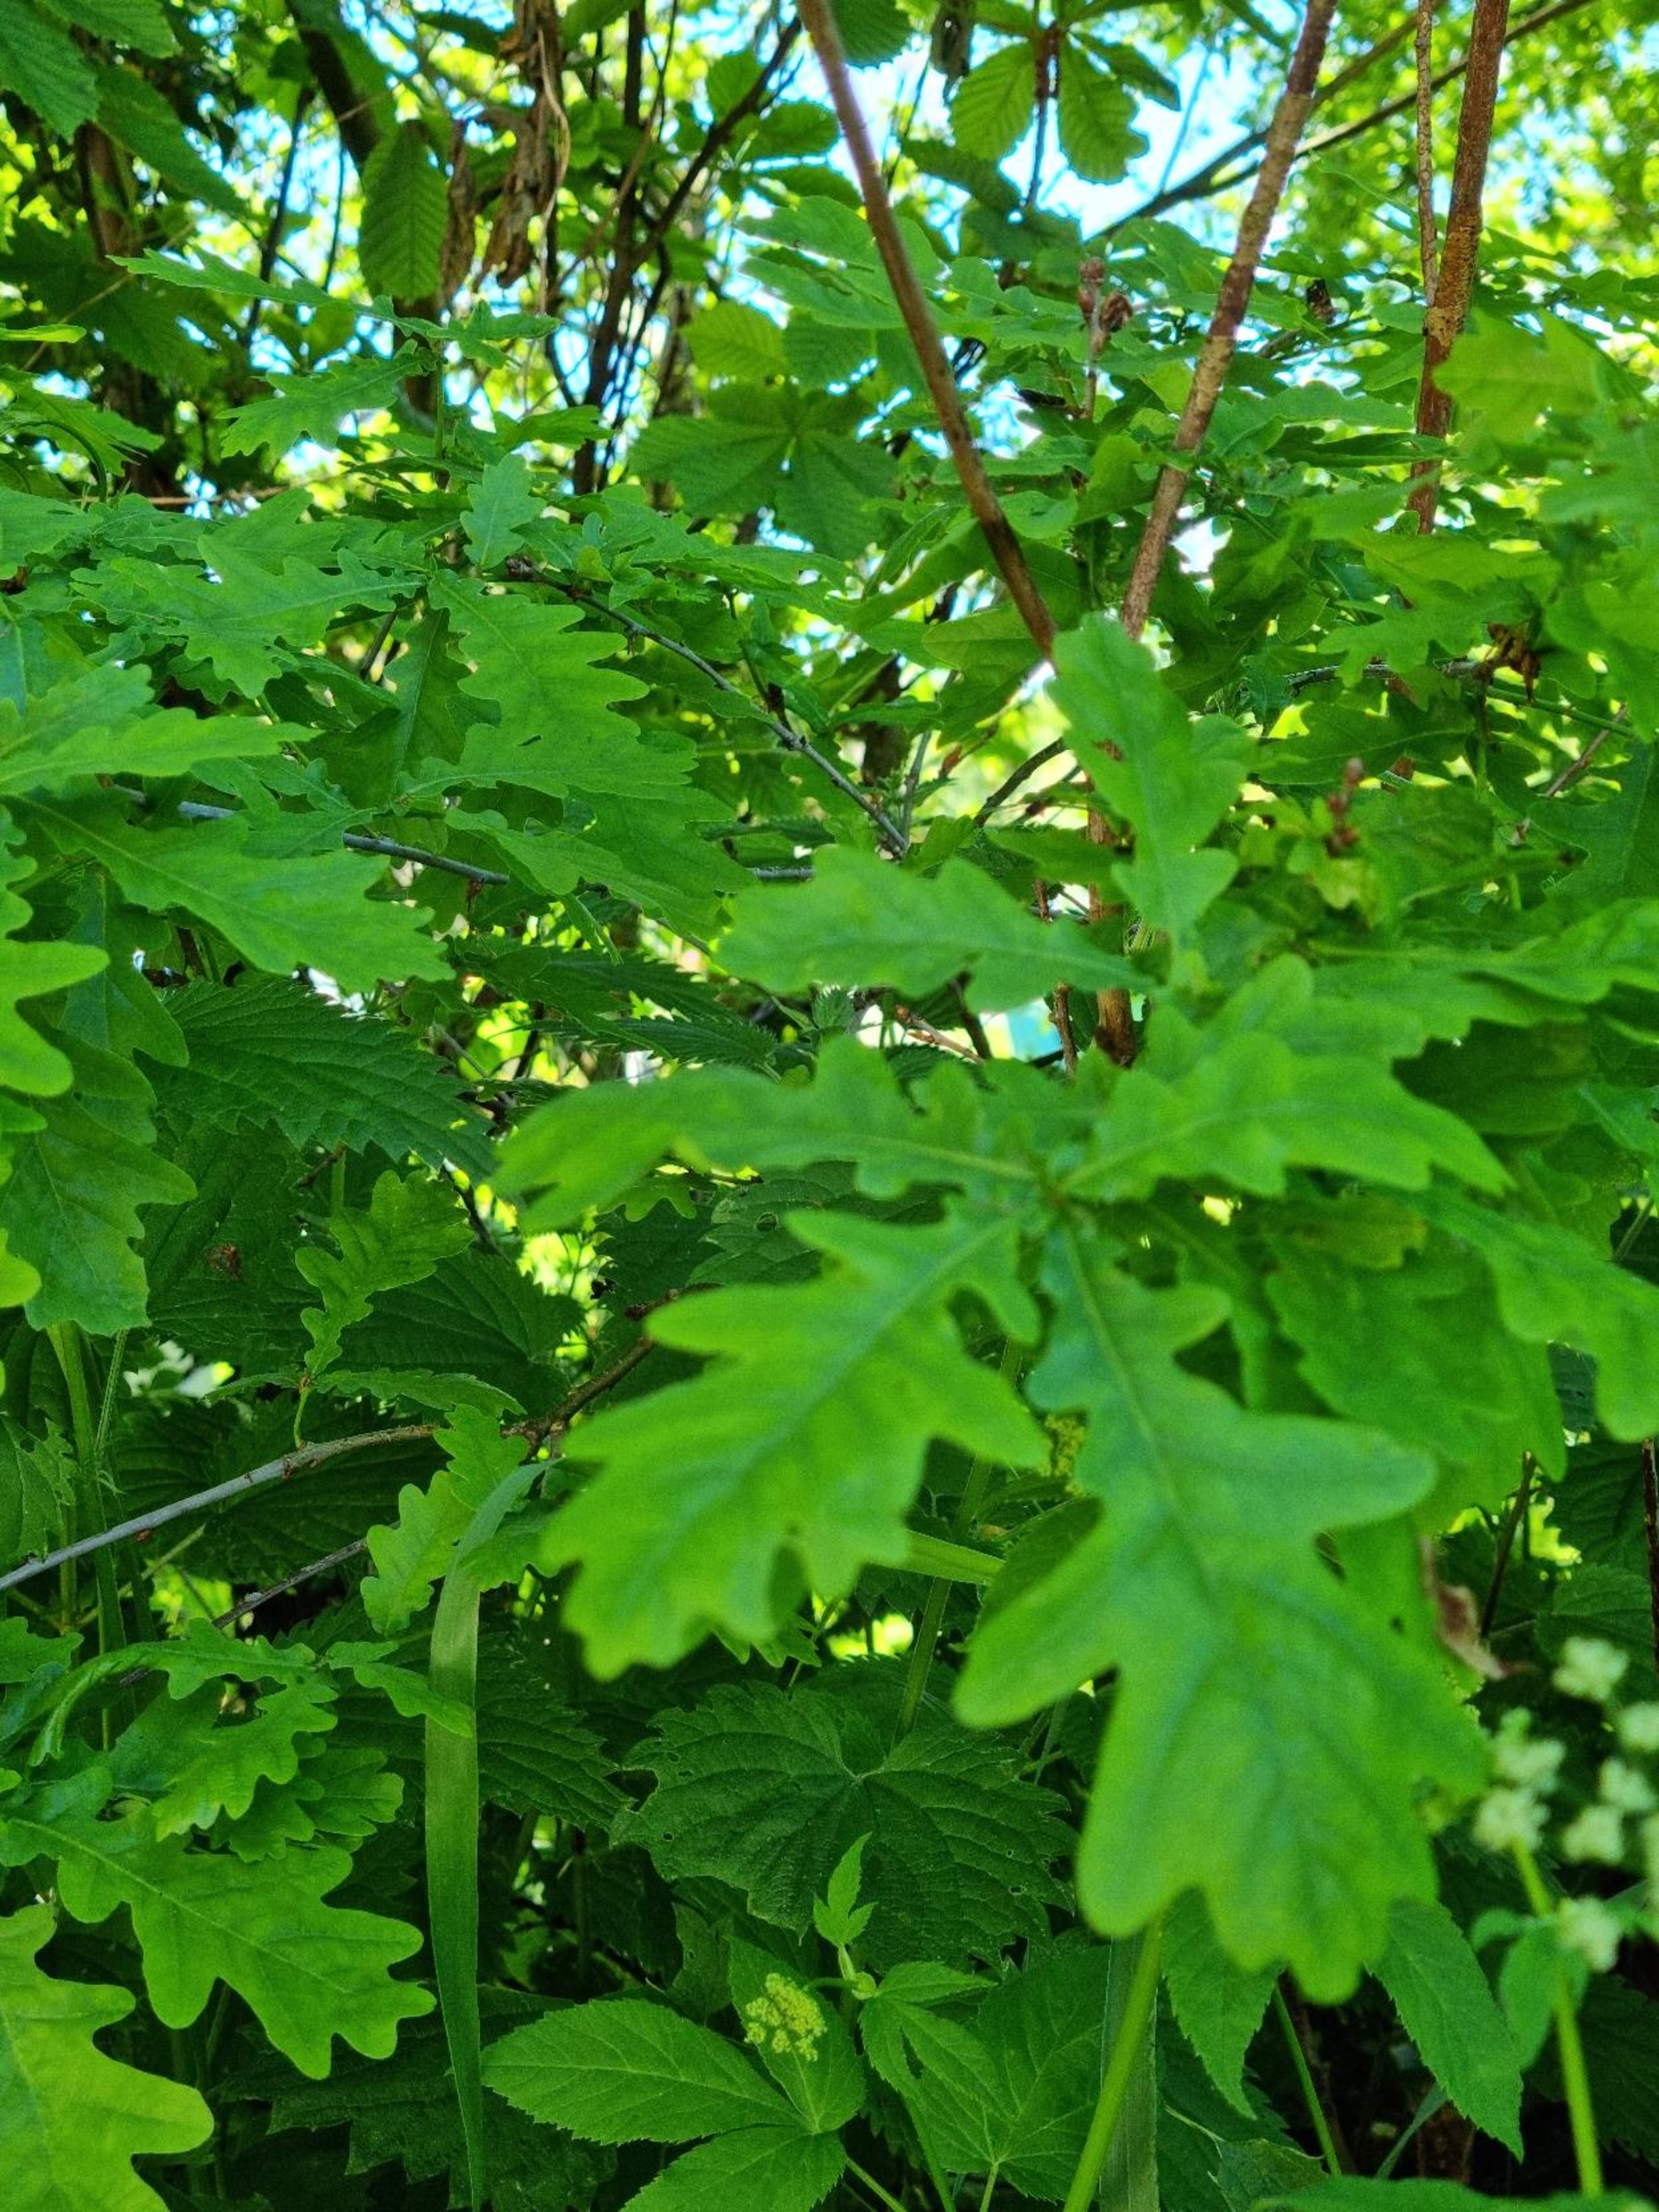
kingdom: Plantae
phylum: Tracheophyta
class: Magnoliopsida
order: Fagales
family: Fagaceae
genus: Quercus
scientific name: Quercus robur
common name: Stilk-eg/almindelig eg
